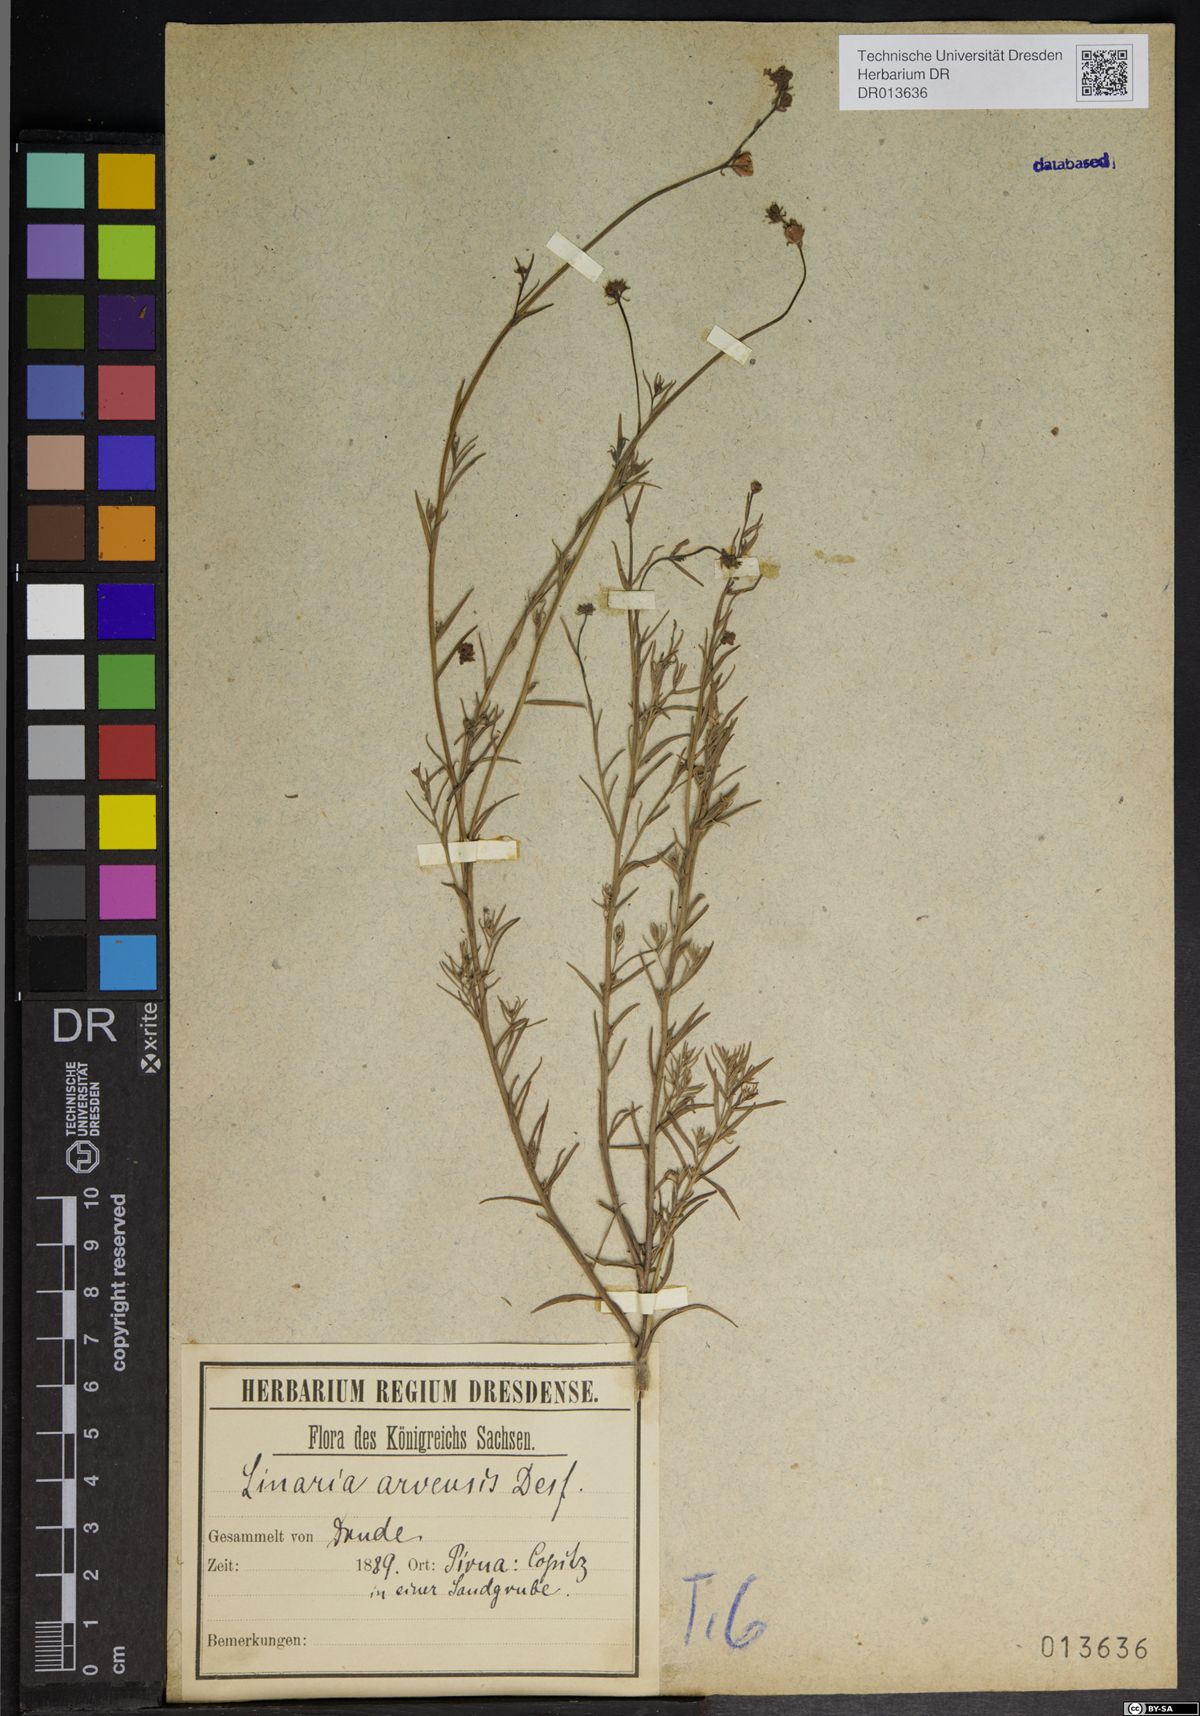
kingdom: Plantae
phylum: Tracheophyta
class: Magnoliopsida
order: Lamiales
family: Plantaginaceae
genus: Linaria
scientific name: Linaria arvensis
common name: Corn toadflax
